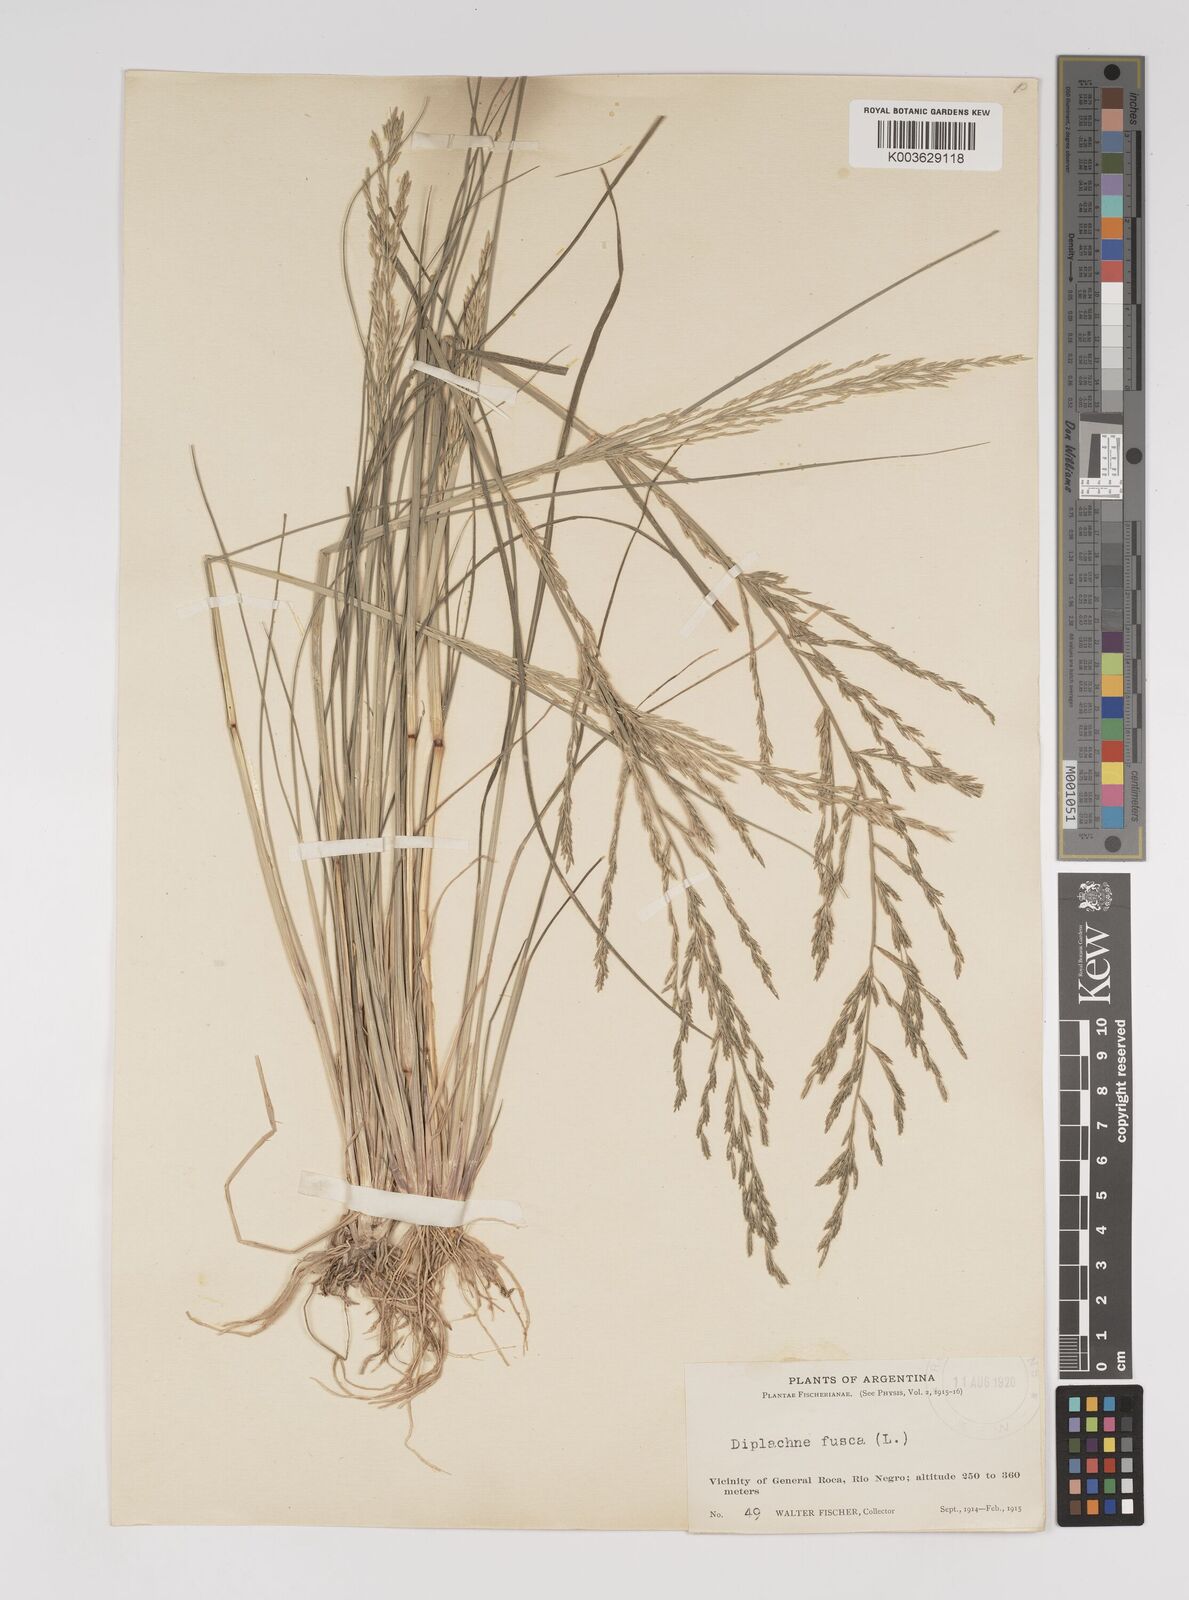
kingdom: Plantae
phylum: Tracheophyta
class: Liliopsida
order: Poales
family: Poaceae
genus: Diplachne
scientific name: Diplachne fusca
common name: Brown beetle grass
